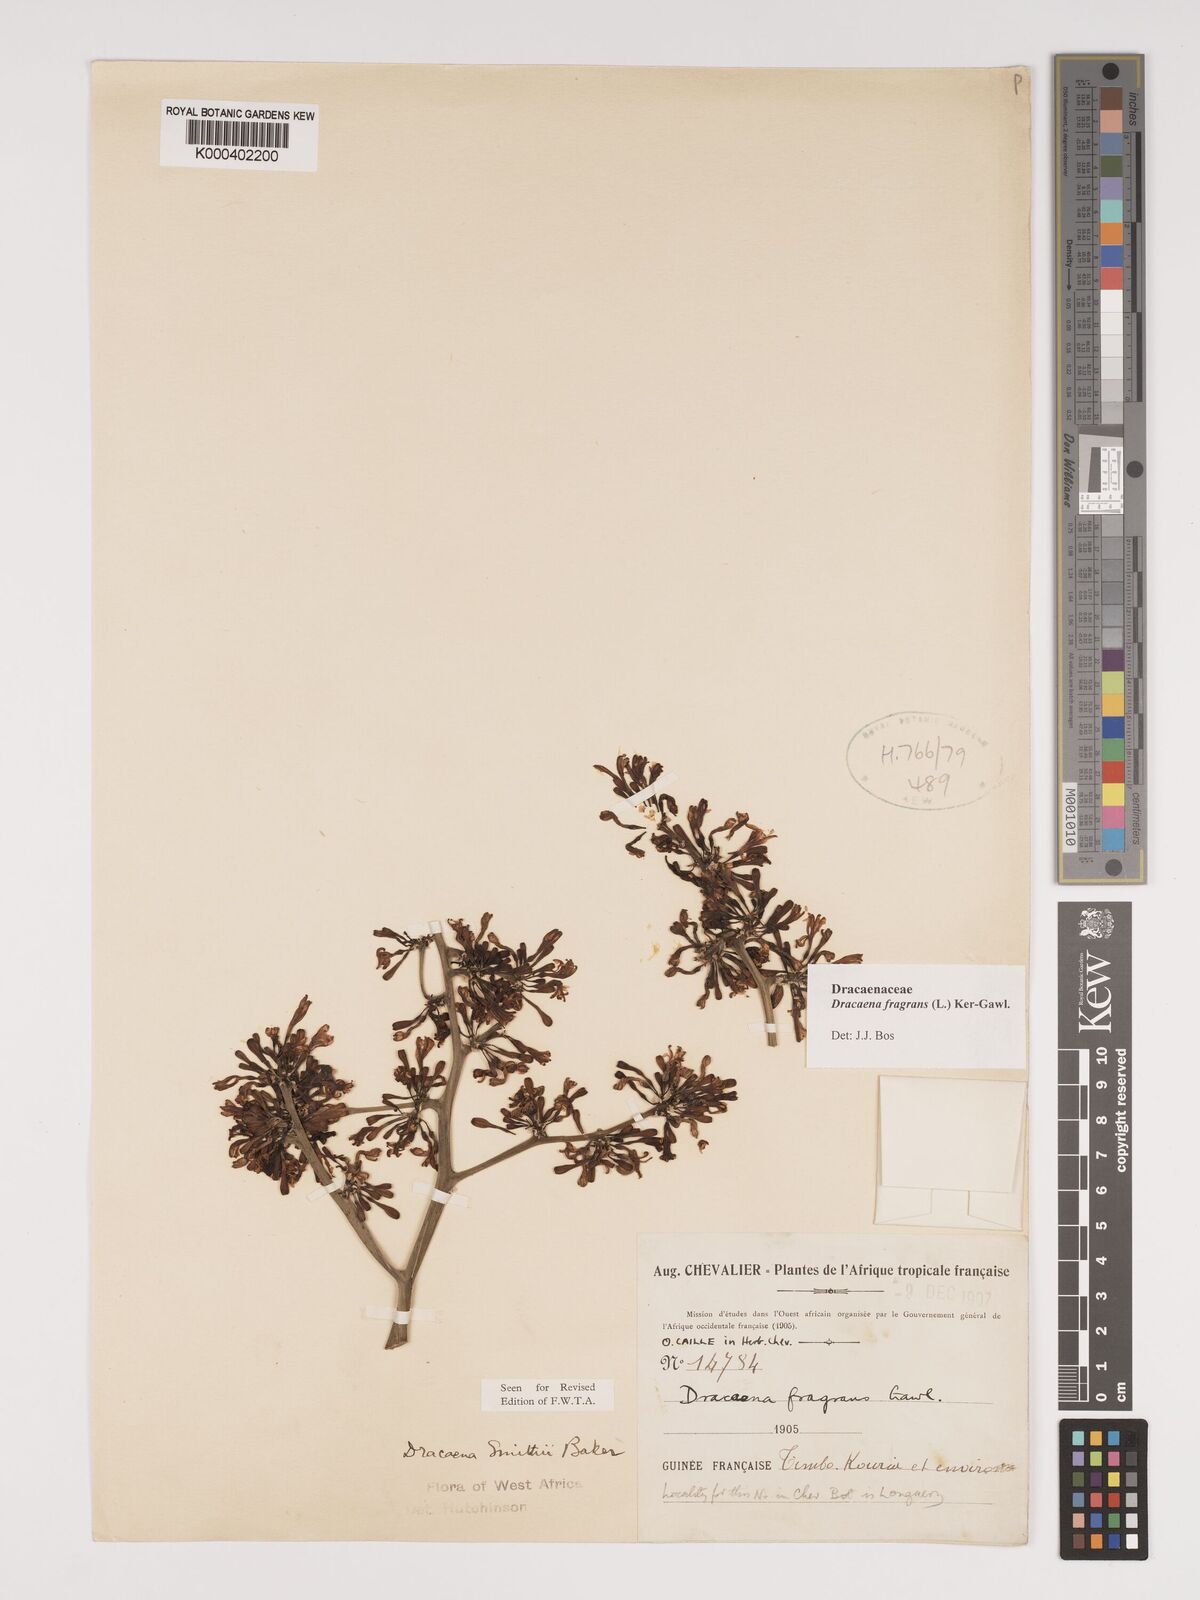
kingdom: Plantae
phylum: Tracheophyta
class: Liliopsida
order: Asparagales
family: Asparagaceae
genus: Dracaena
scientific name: Dracaena fragrans
